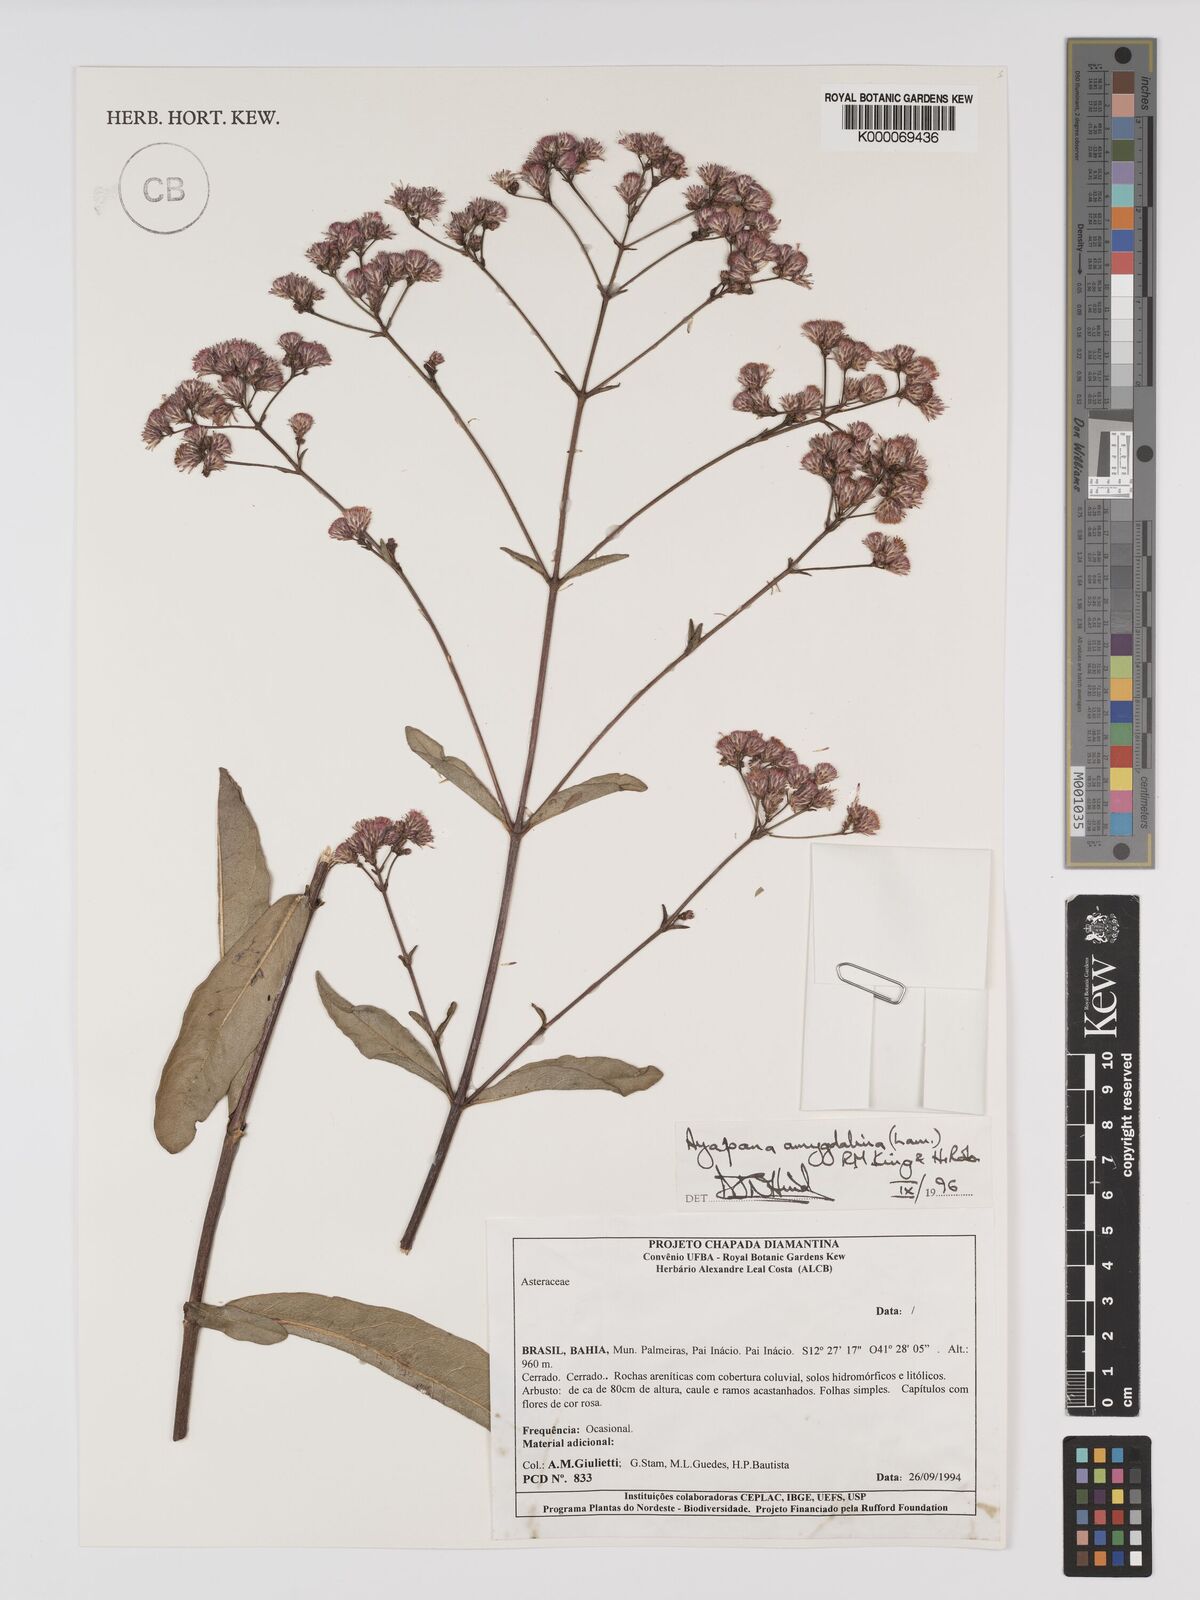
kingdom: Plantae
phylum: Tracheophyta
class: Magnoliopsida
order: Asterales
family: Asteraceae
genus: Ayapana
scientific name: Ayapana amygdalina
